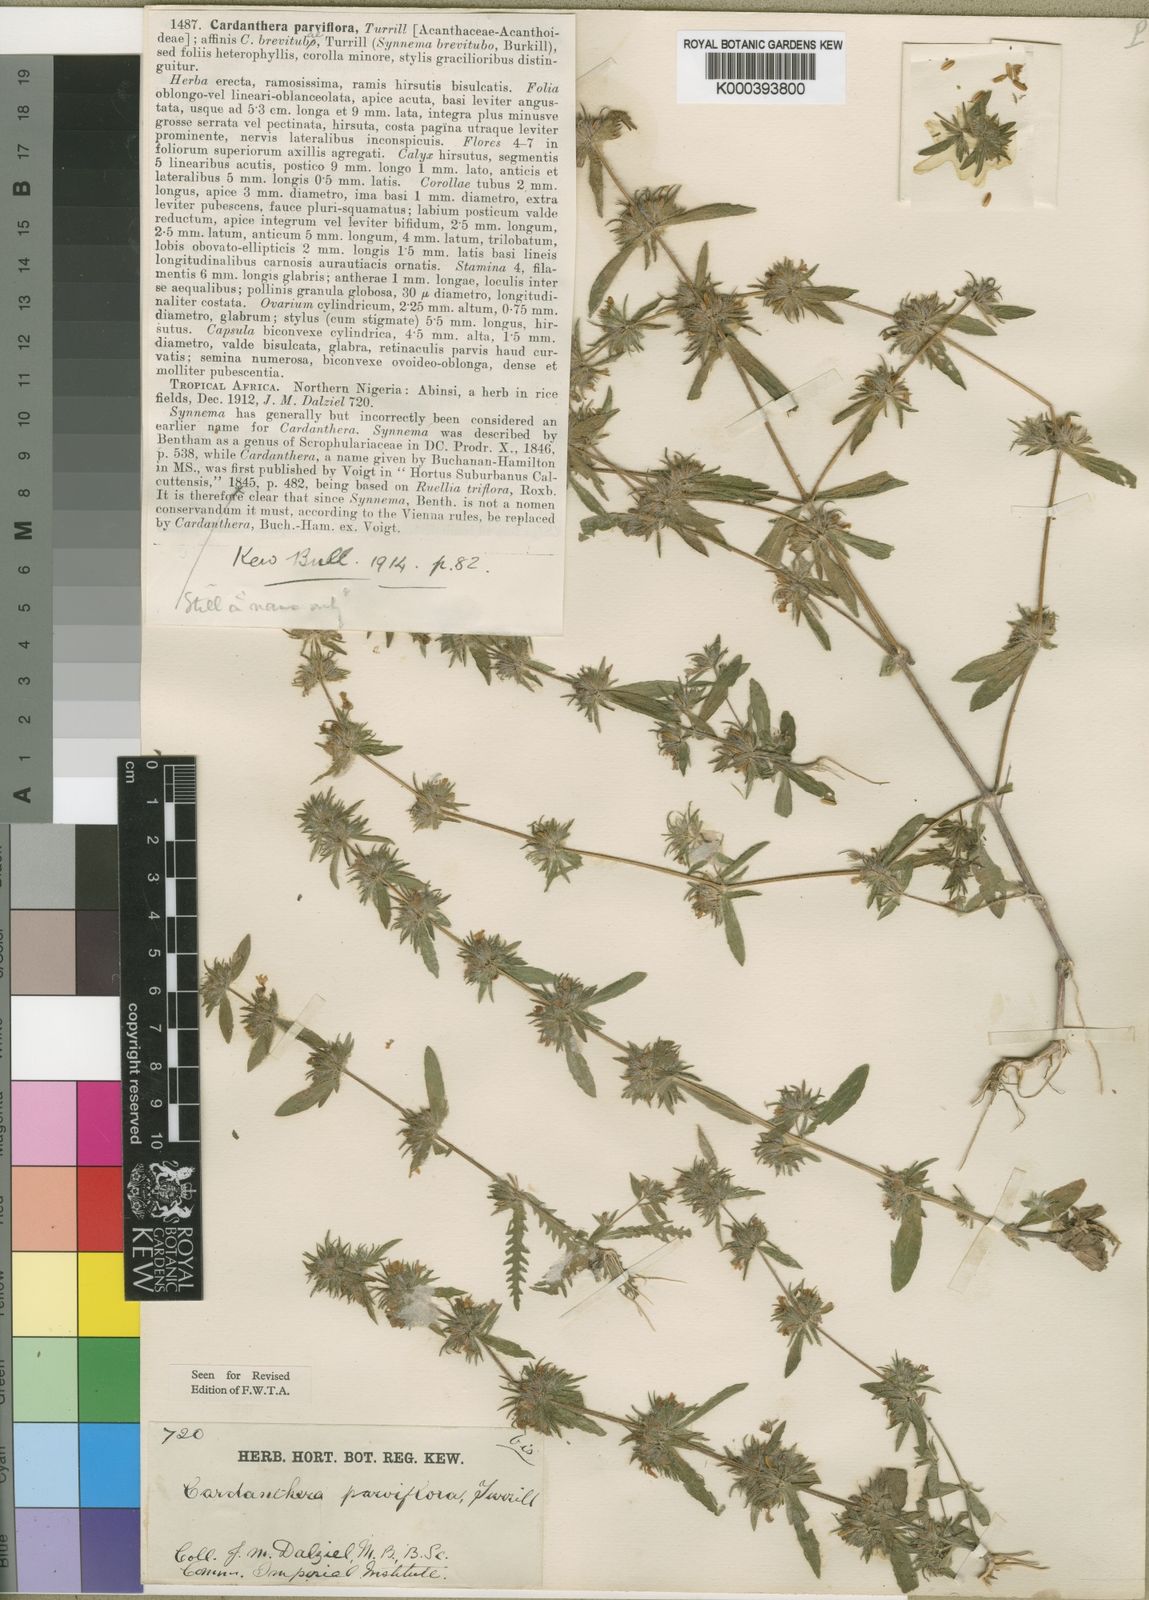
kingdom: Plantae
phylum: Tracheophyta
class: Magnoliopsida
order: Lamiales
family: Acanthaceae
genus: Hygrophila
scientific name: Hygrophila brevituba
